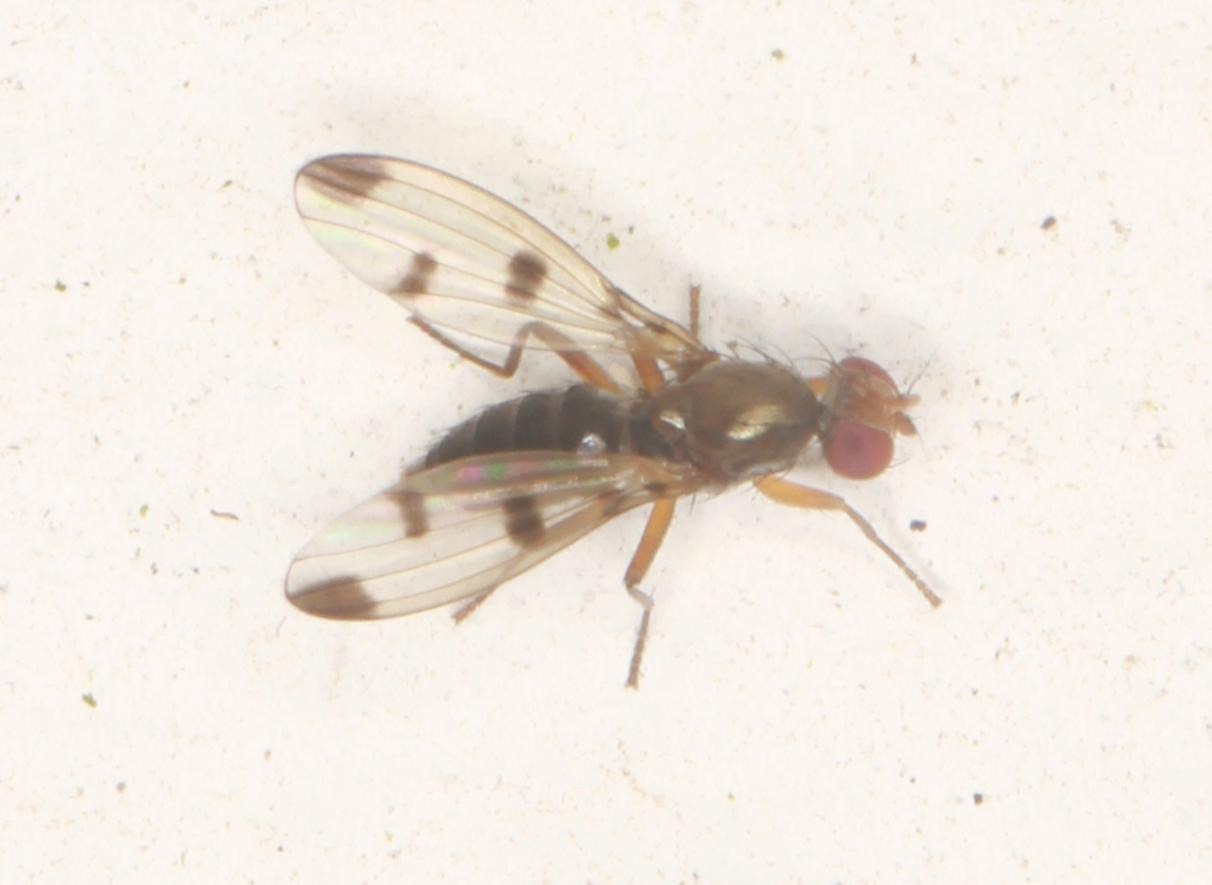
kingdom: Animalia
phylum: Arthropoda
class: Insecta
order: Diptera
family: Opomyzidae
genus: Geomyza
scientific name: Geomyza tripunctata
